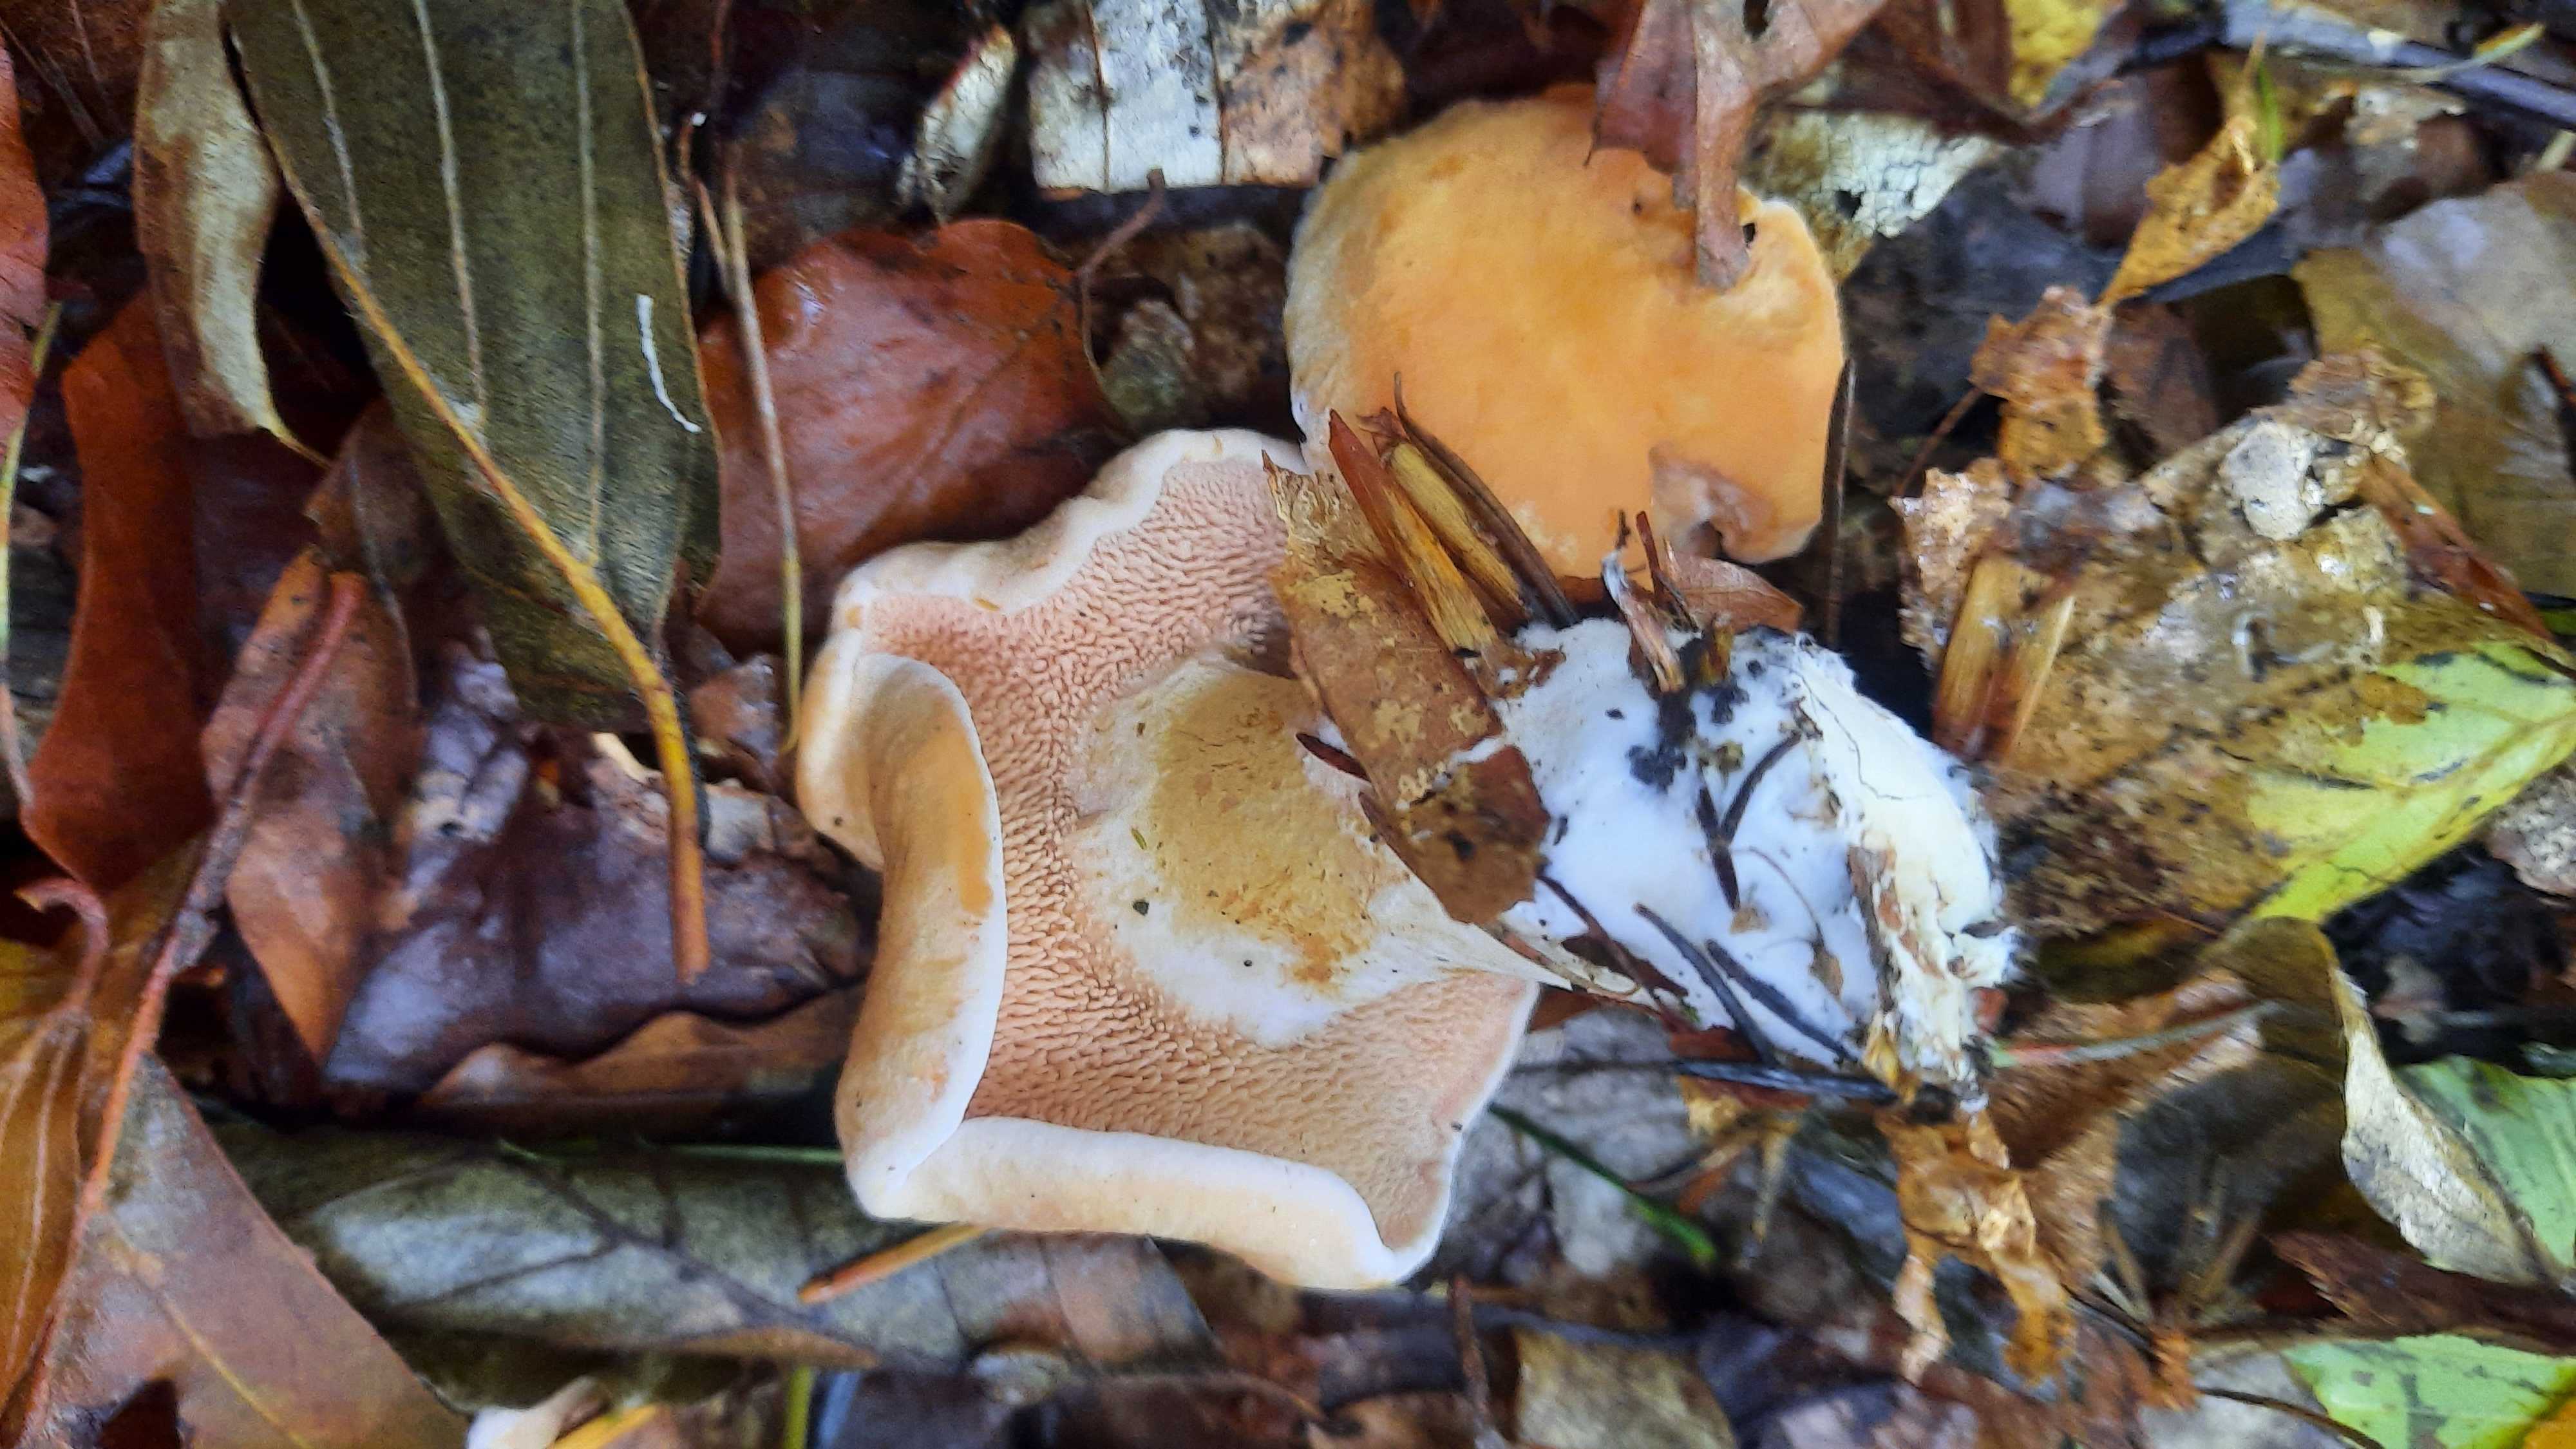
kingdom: Fungi
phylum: Basidiomycota
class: Agaricomycetes
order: Cantharellales
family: Hydnaceae
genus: Hydnum
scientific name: Hydnum rufescens
